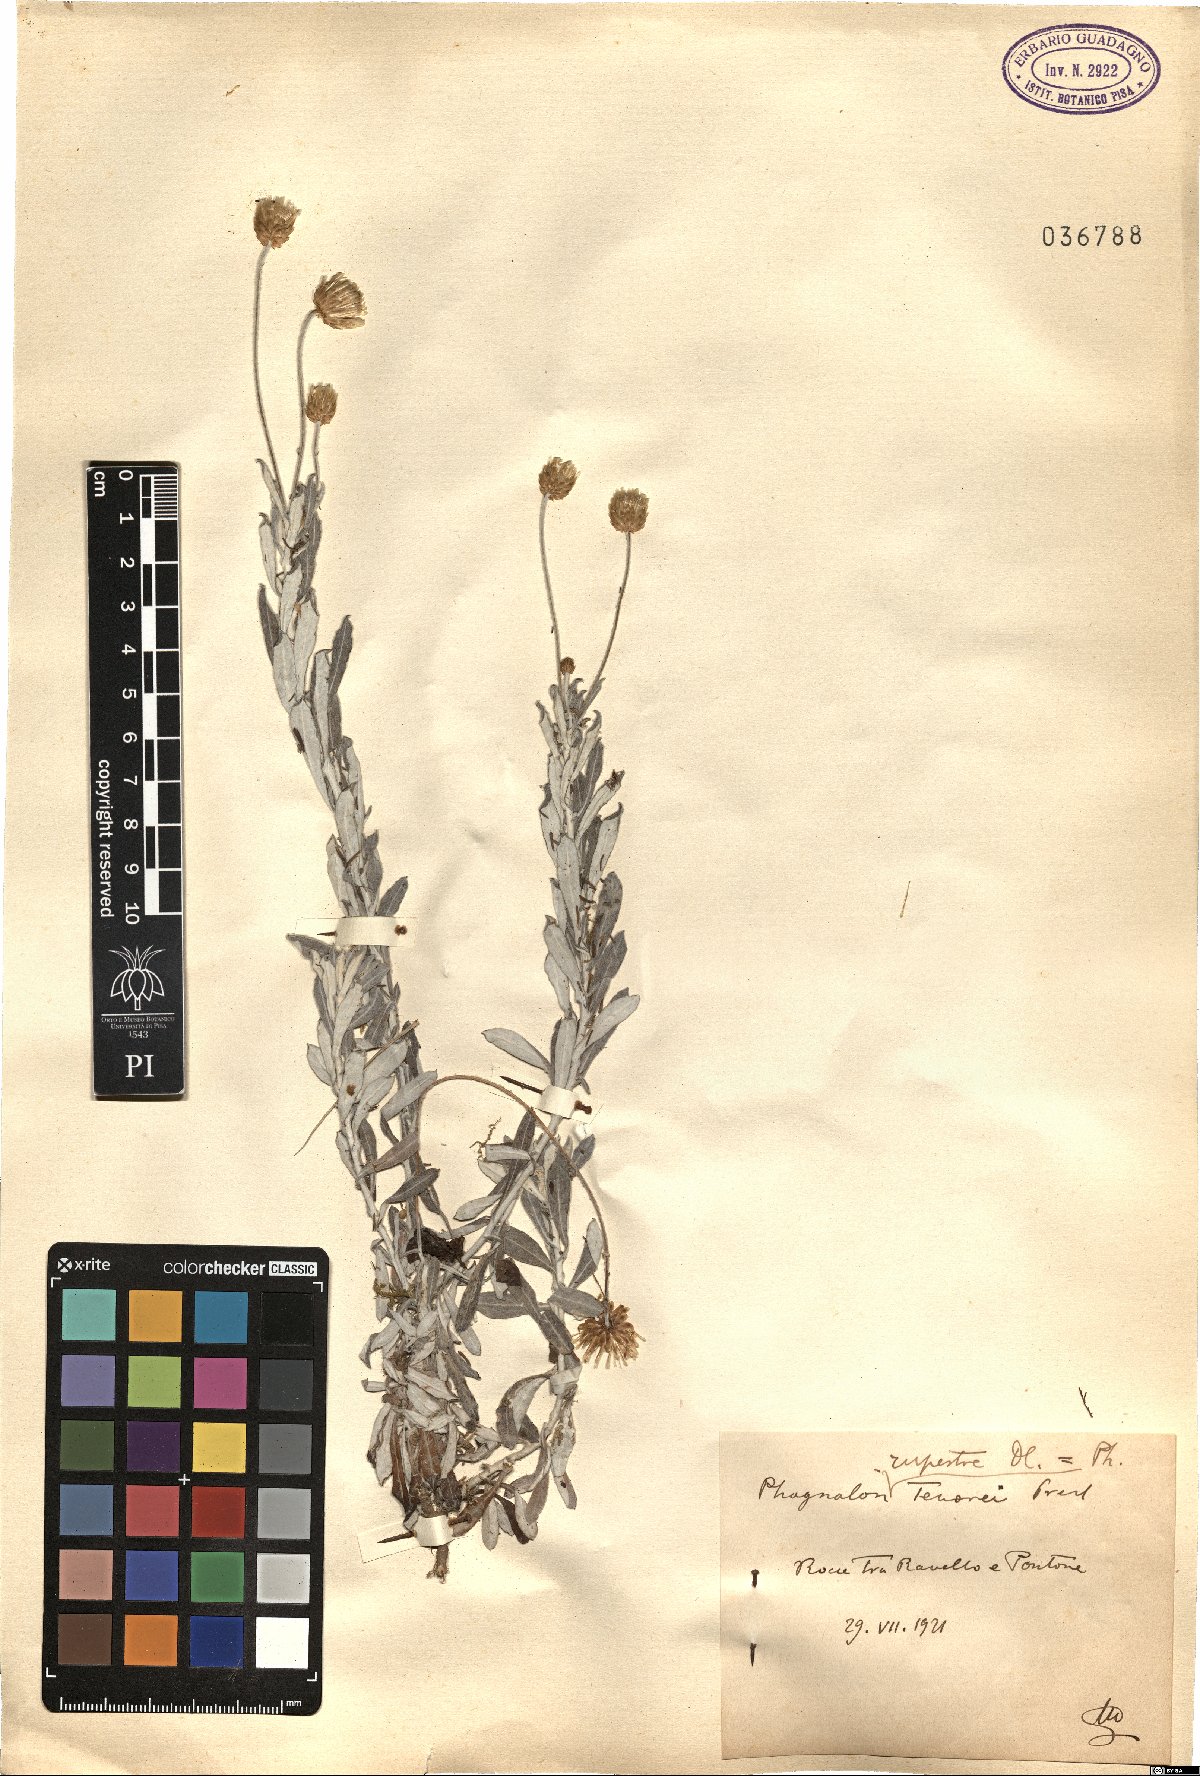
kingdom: Plantae
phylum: Tracheophyta
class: Magnoliopsida
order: Asterales
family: Asteraceae
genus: Phagnalon
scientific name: Phagnalon rupestre
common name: Rock phagnalon
